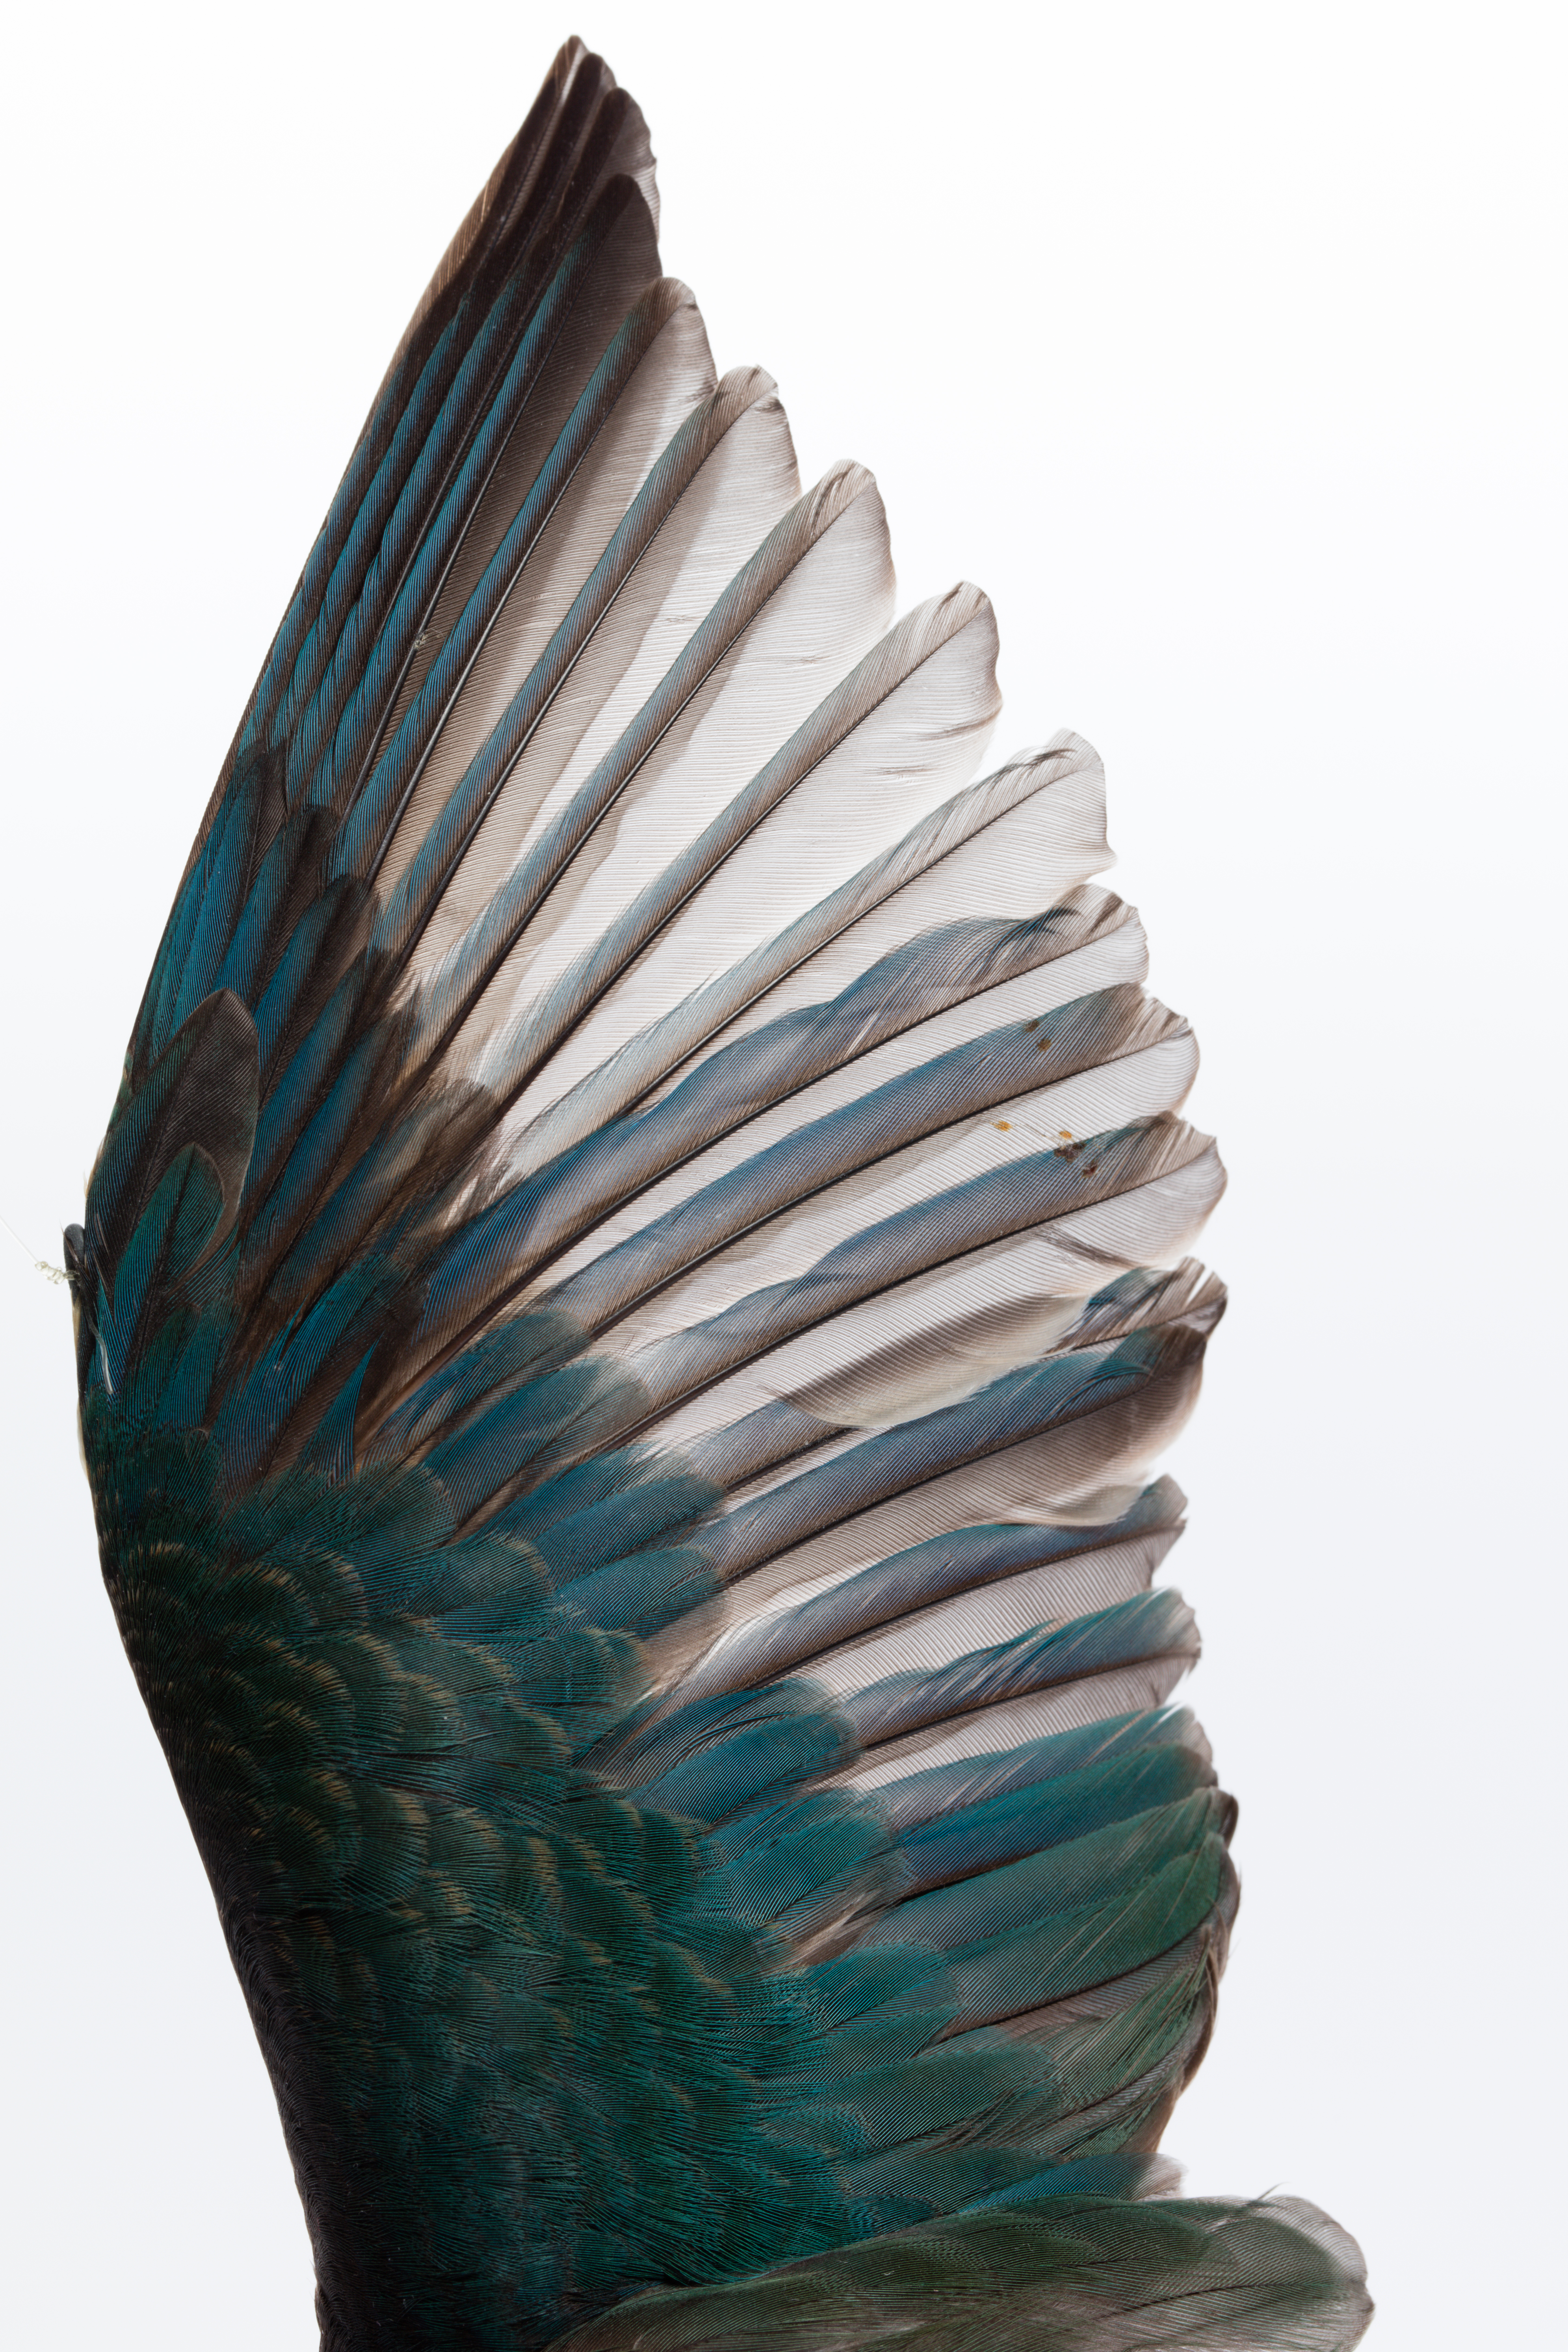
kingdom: Animalia
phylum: Chordata
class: Aves
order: Coraciiformes
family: Alcedinidae
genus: Todiramphus
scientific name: Todiramphus sanctus
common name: Sacred kingfisher
